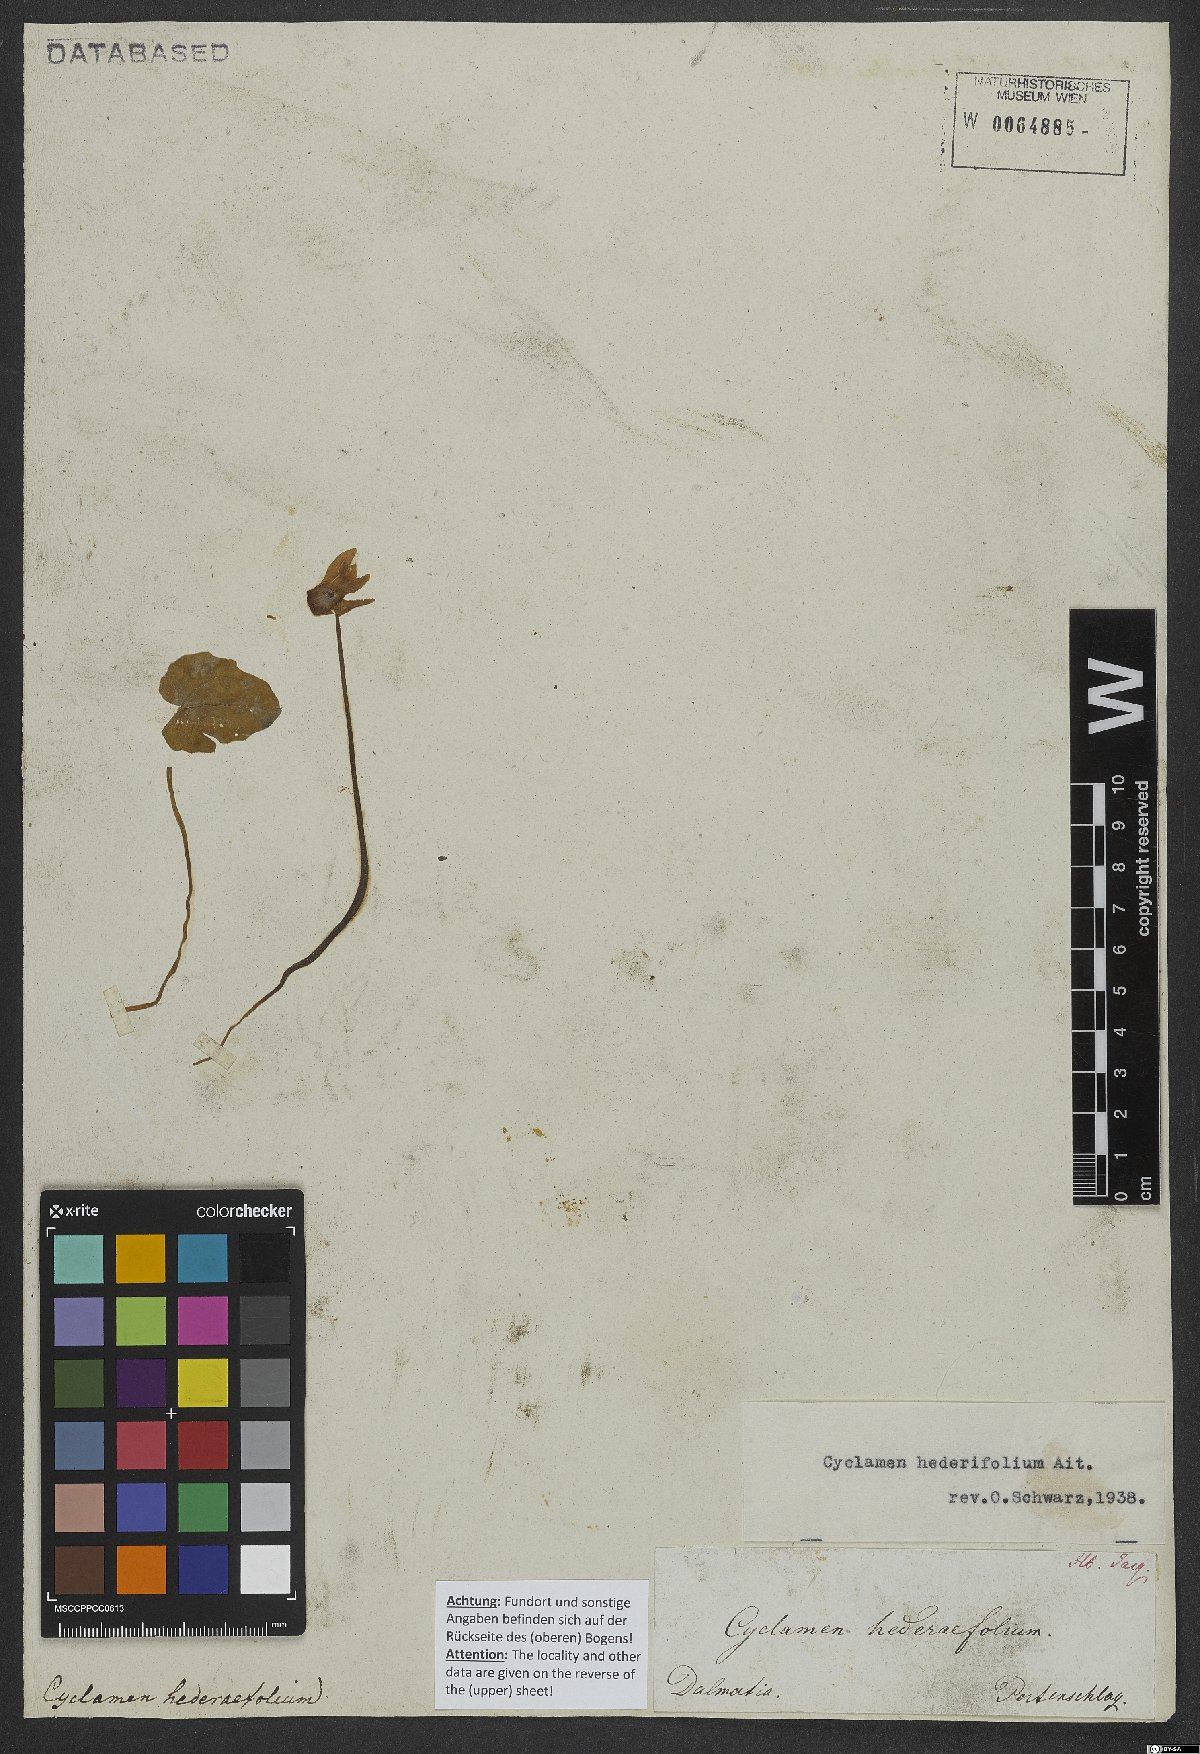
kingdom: Plantae
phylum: Tracheophyta
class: Magnoliopsida
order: Ericales
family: Primulaceae
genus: Cyclamen
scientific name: Cyclamen hederifolium
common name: Sowbread
